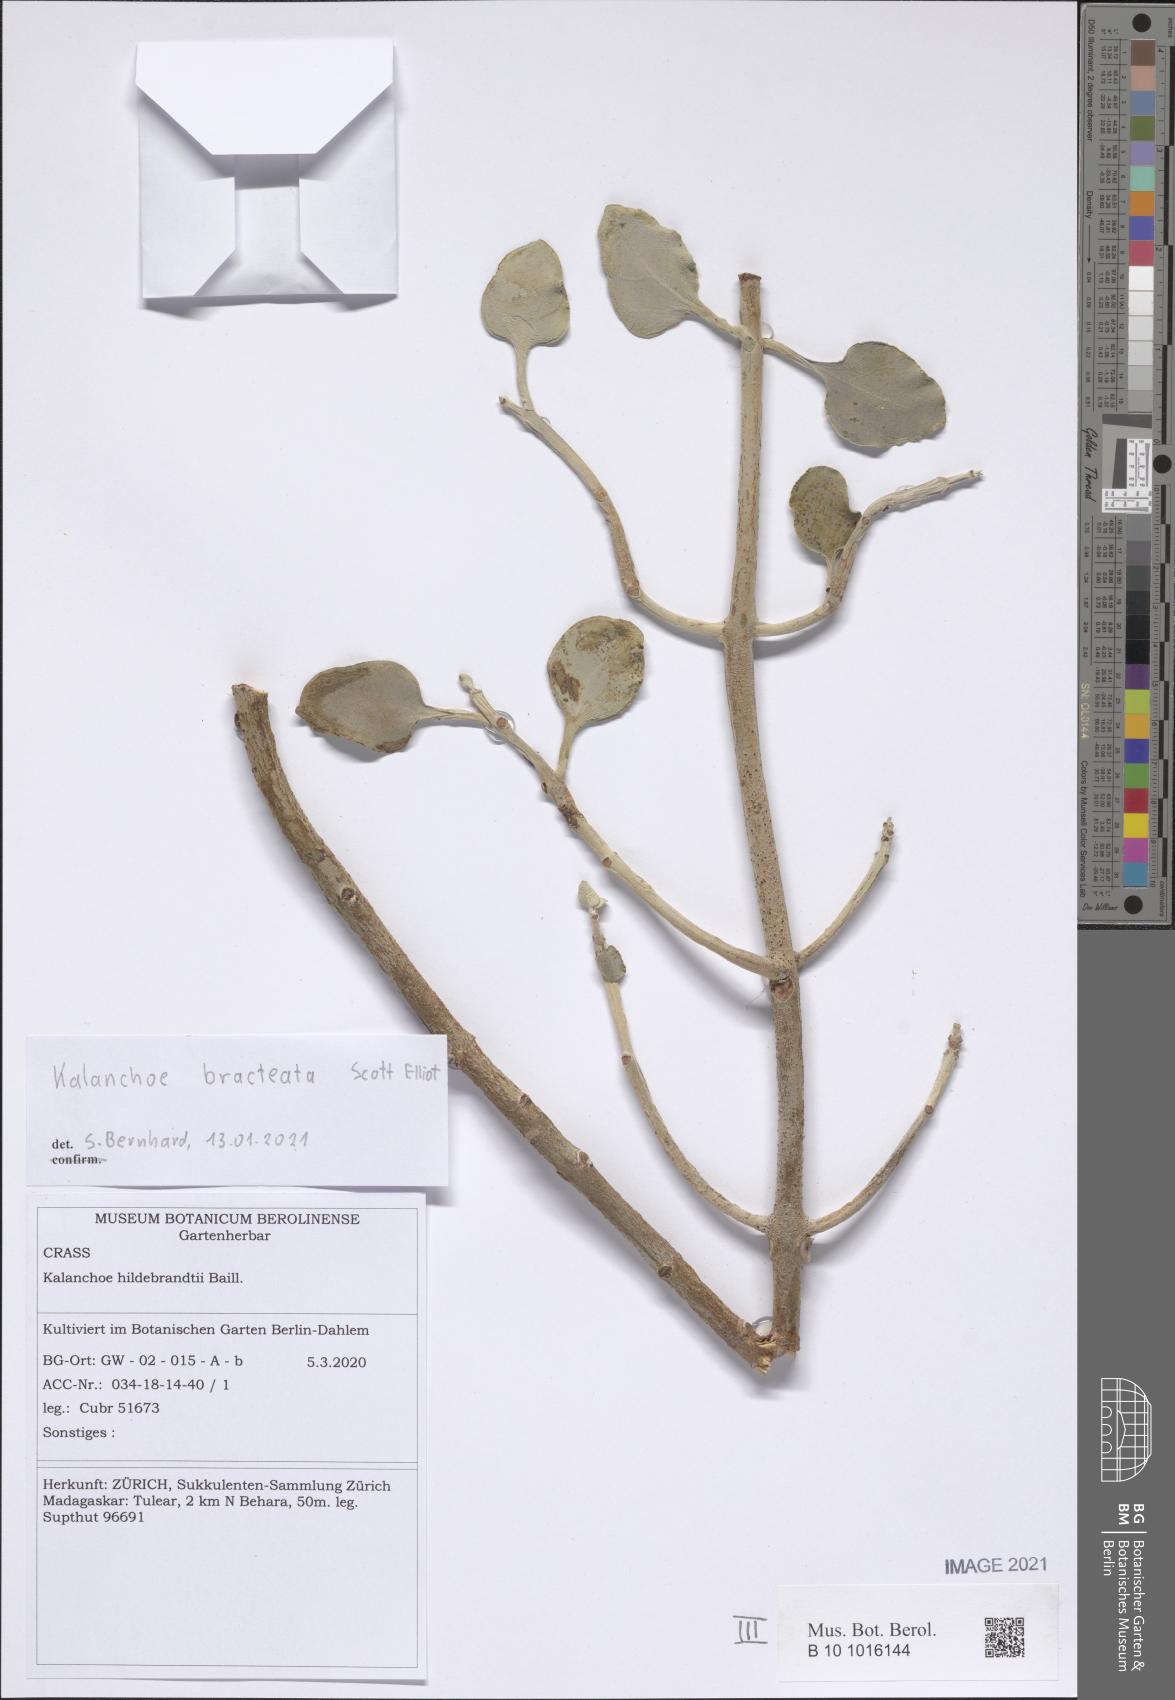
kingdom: Plantae
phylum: Tracheophyta
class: Magnoliopsida
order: Saxifragales
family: Crassulaceae
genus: Kalanchoe
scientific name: Kalanchoe bracteata
